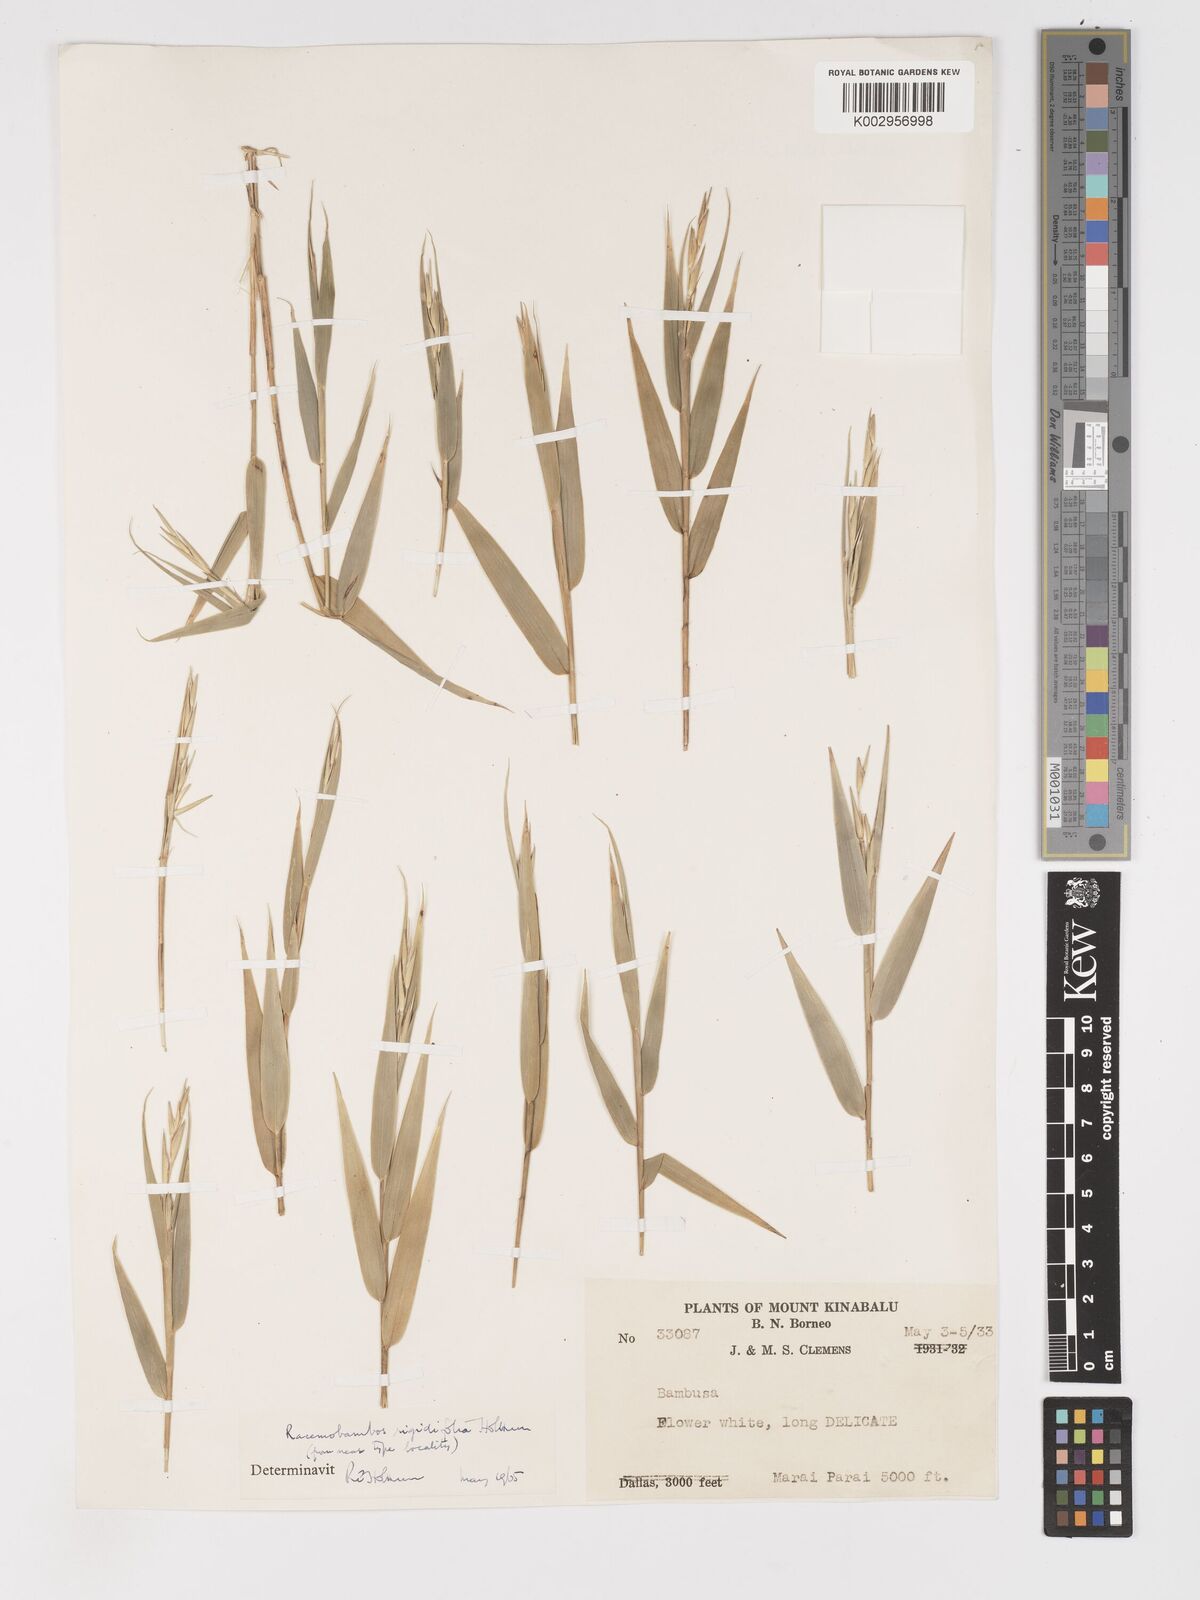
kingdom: Plantae
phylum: Tracheophyta
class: Liliopsida
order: Poales
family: Poaceae
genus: Racemobambos
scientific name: Racemobambos rigidifolia
